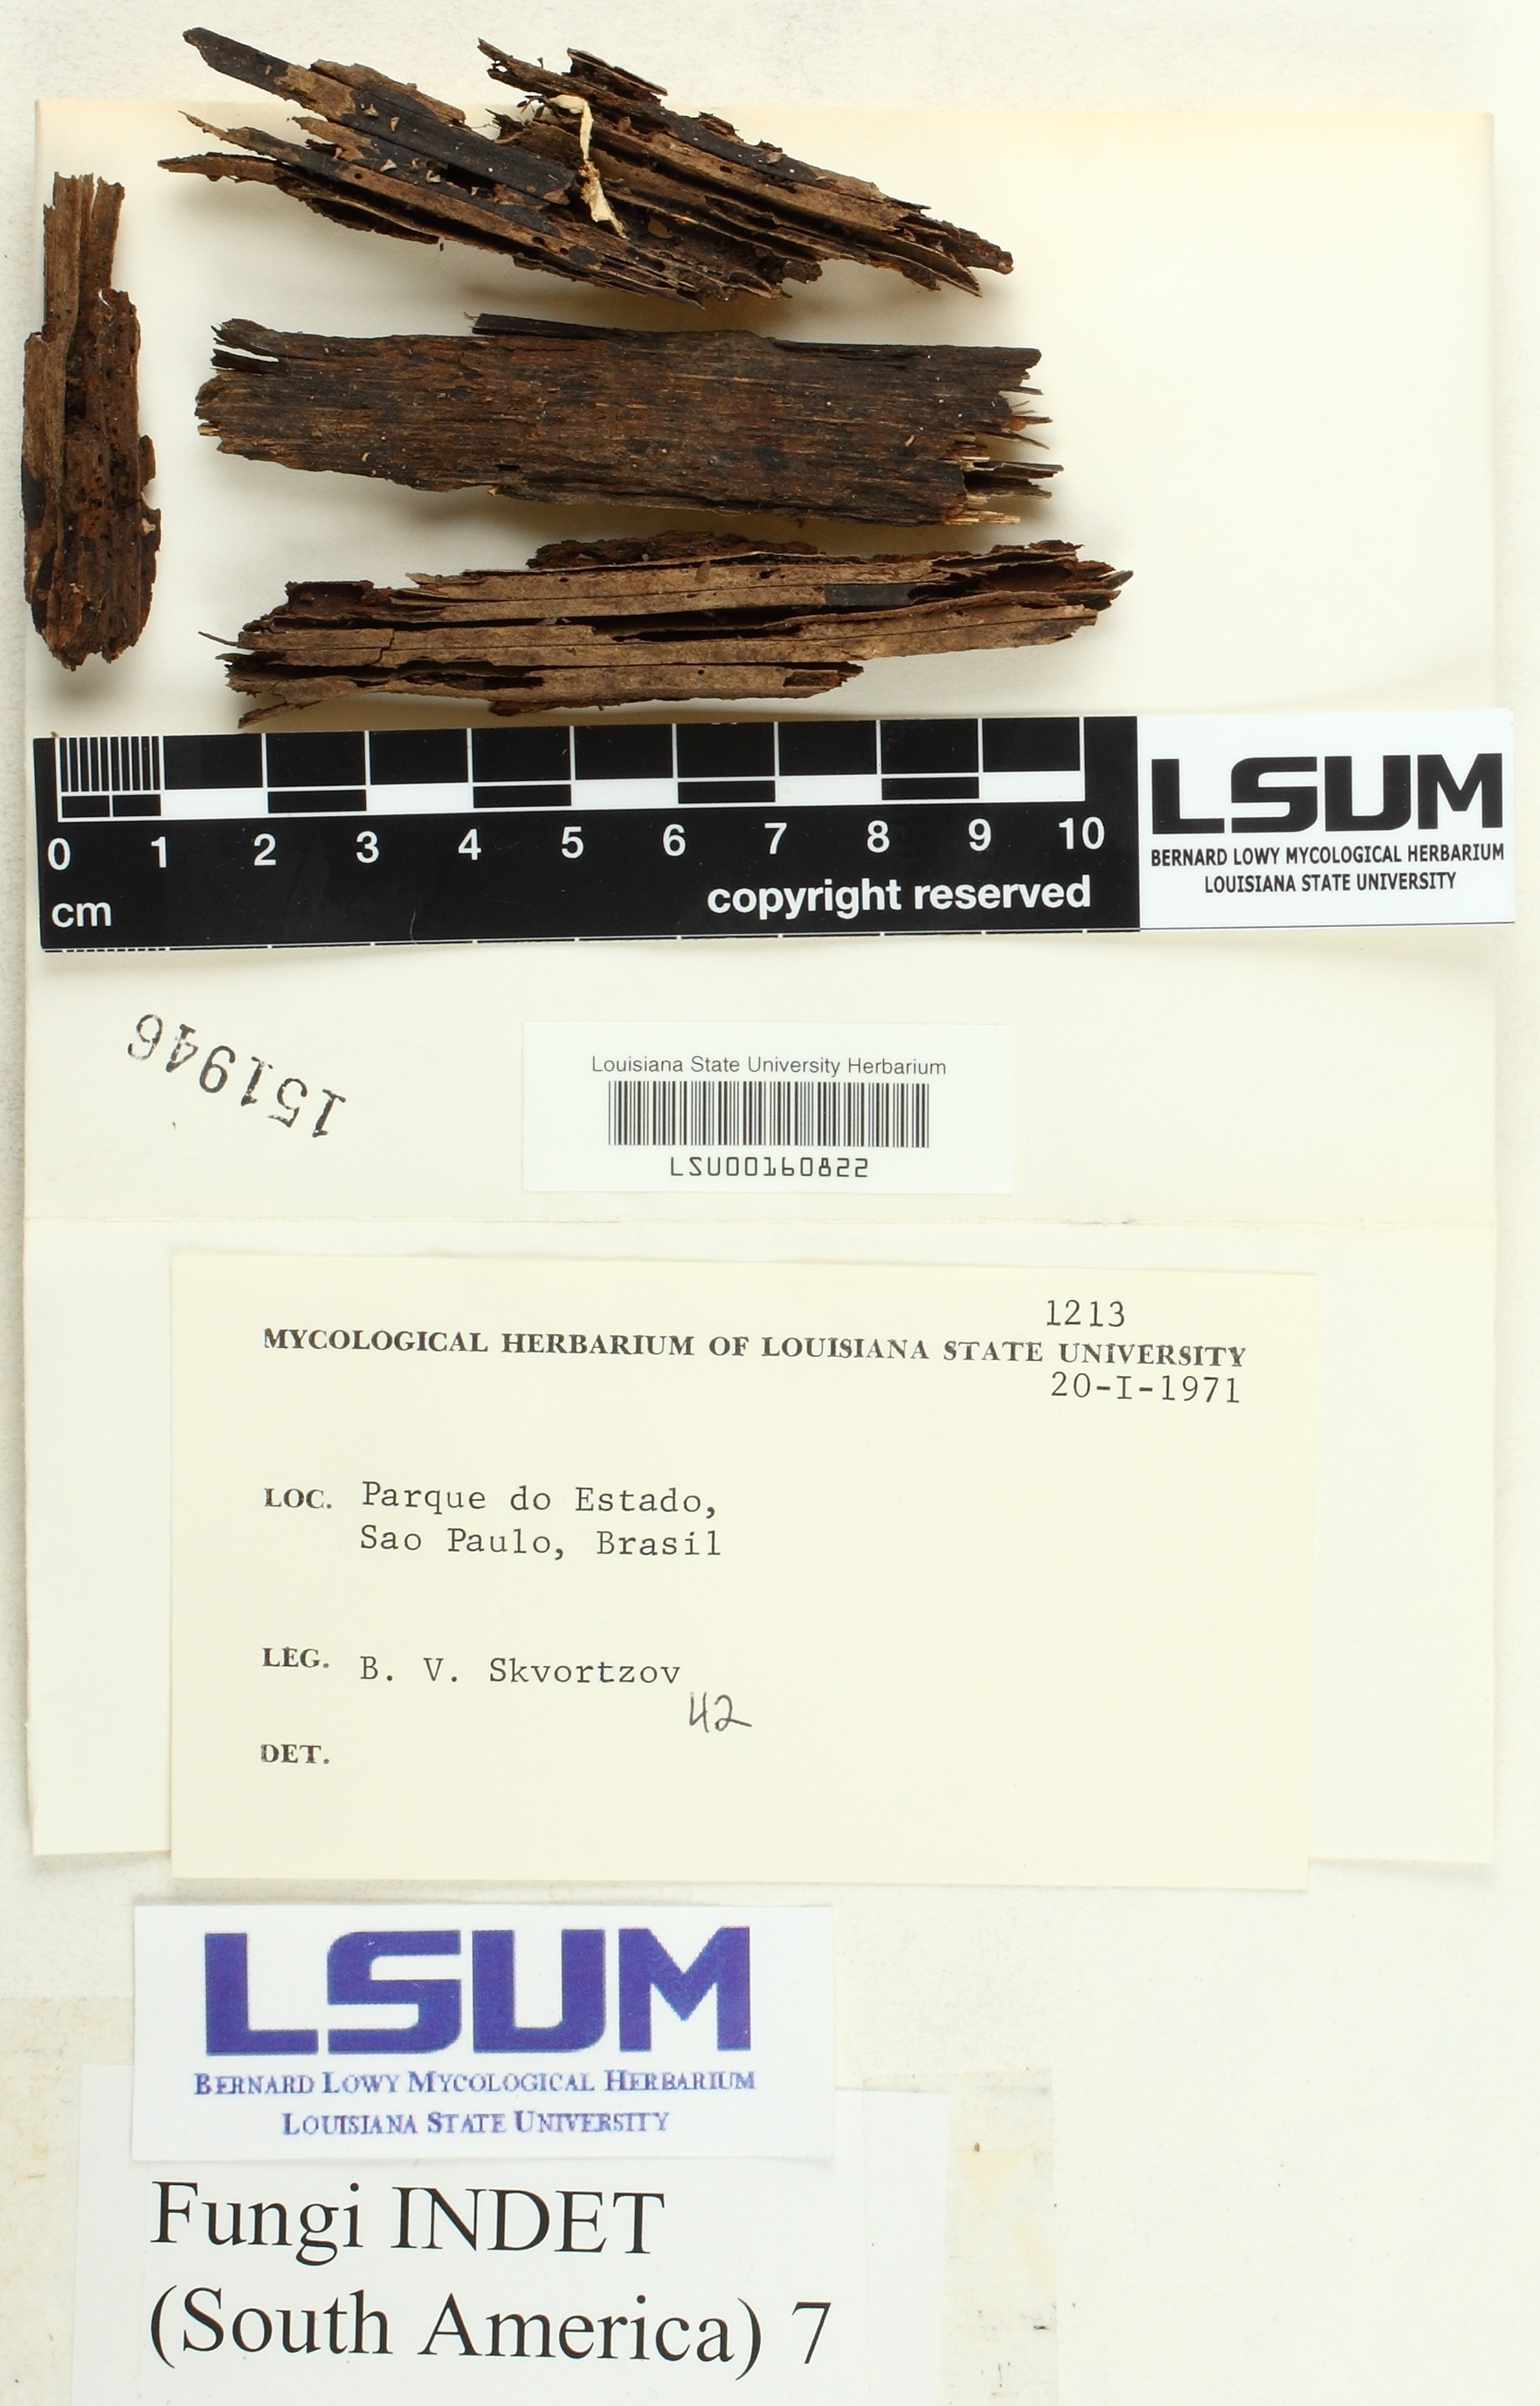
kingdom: Fungi
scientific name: Fungi
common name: Fungi
